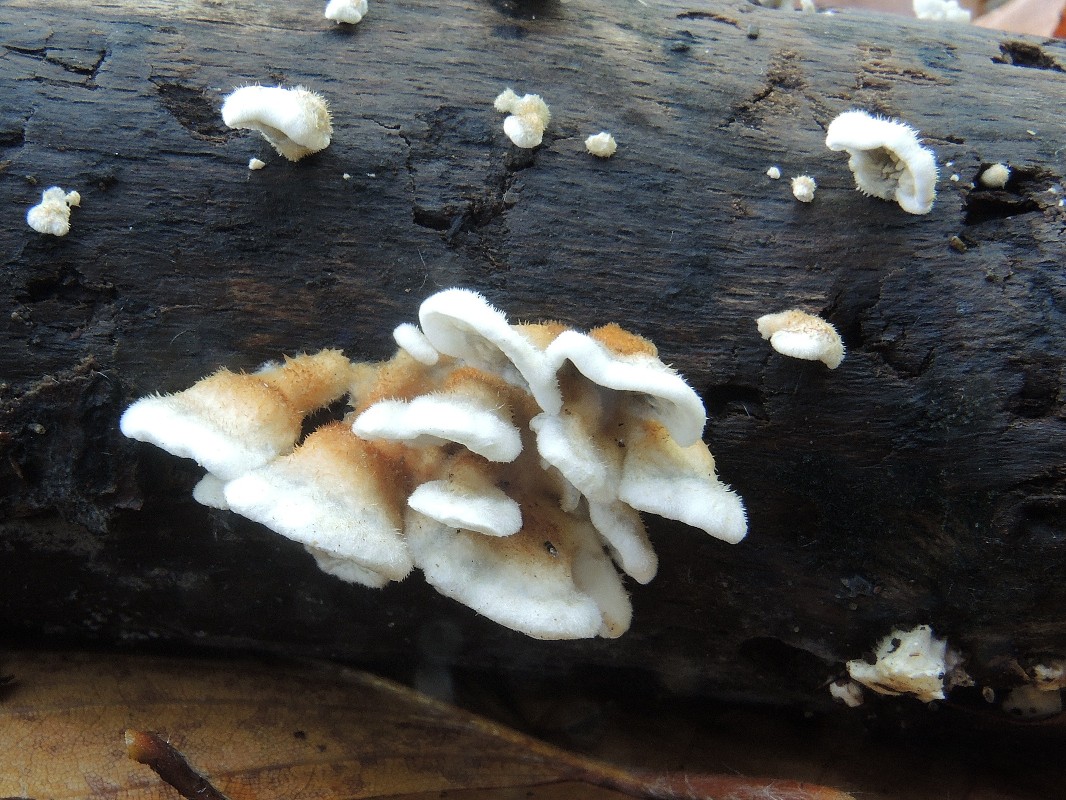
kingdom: Fungi
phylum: Basidiomycota
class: Agaricomycetes
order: Amylocorticiales
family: Amylocorticiaceae
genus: Plicaturopsis
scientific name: Plicaturopsis crispa
